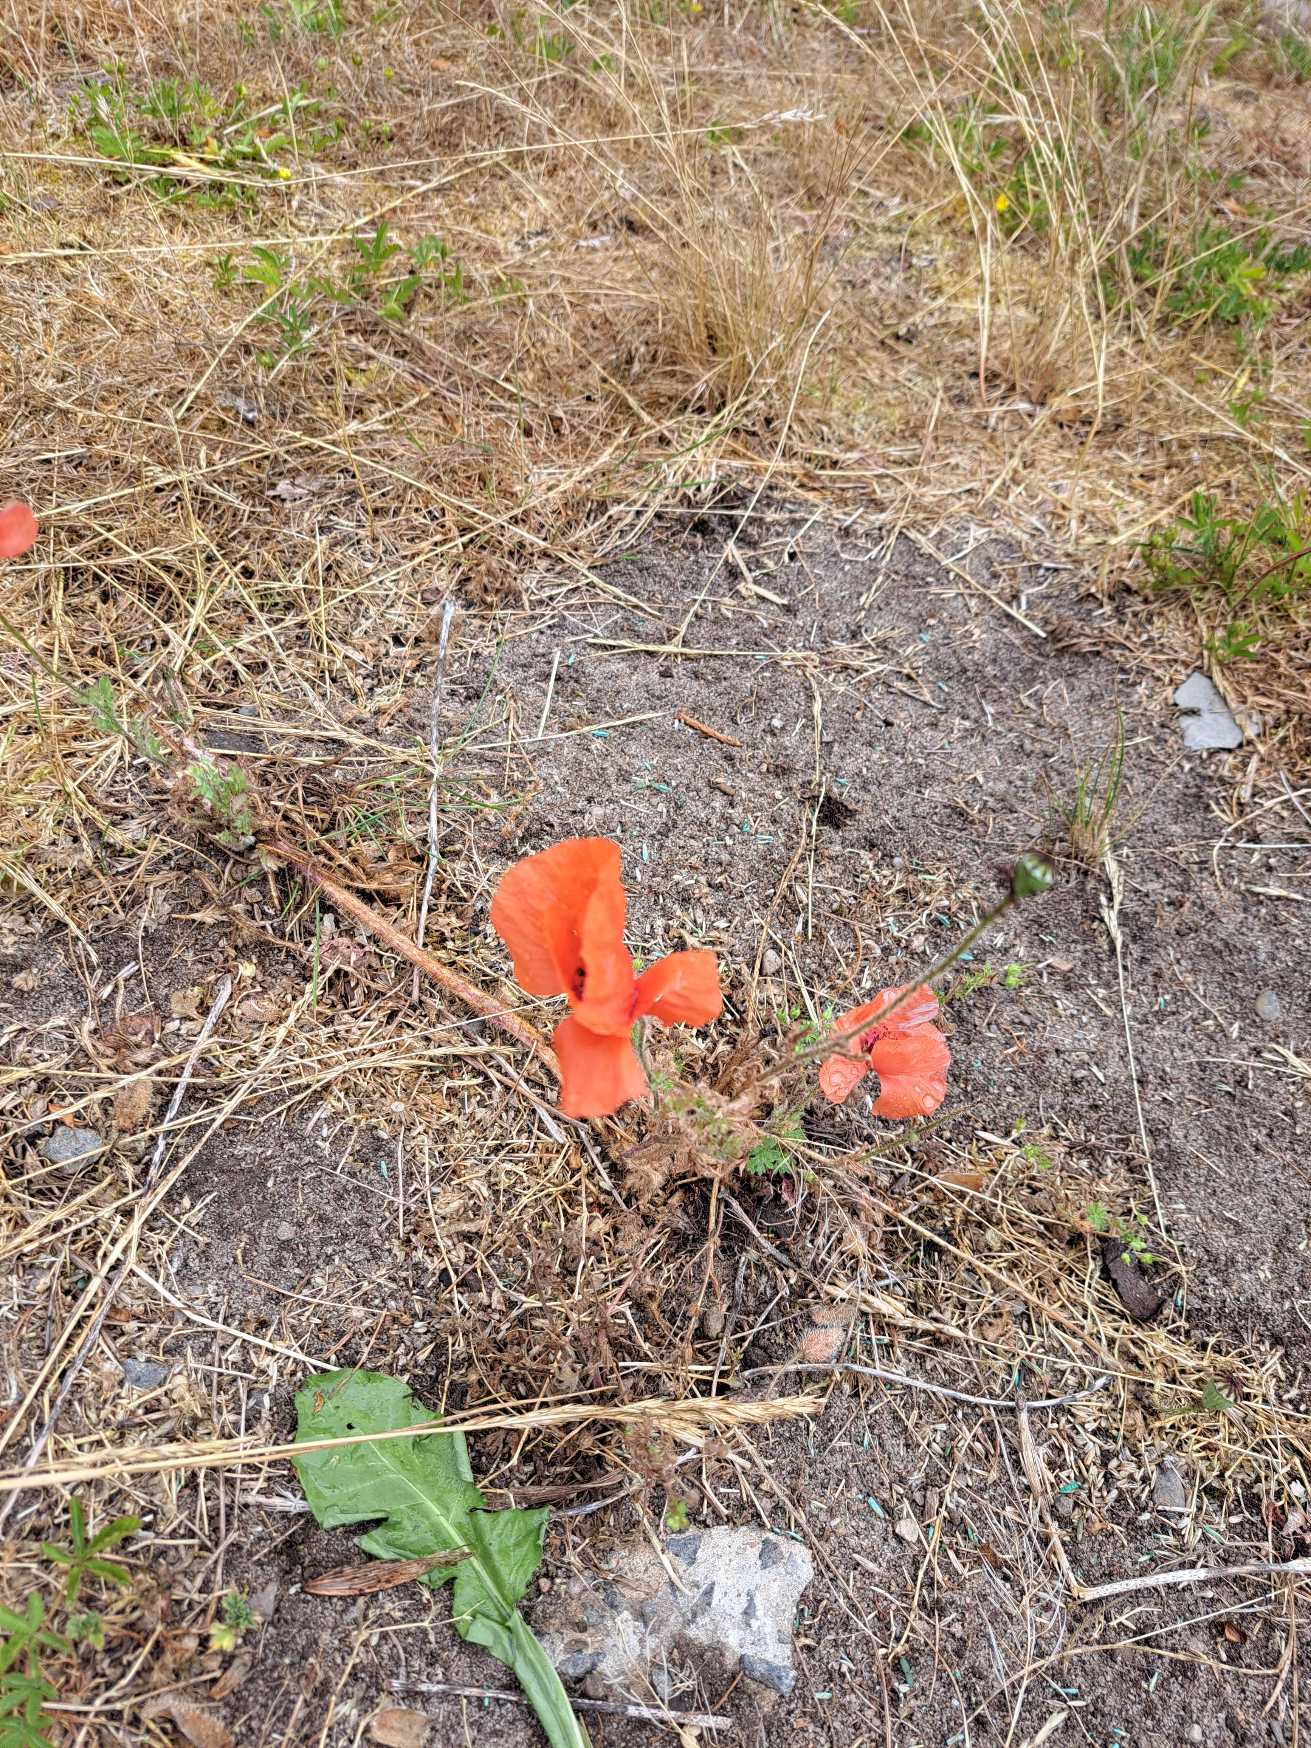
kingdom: Plantae
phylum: Tracheophyta
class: Magnoliopsida
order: Ranunculales
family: Papaveraceae
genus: Papaver
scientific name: Papaver rhoeas
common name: Korn-valmue
